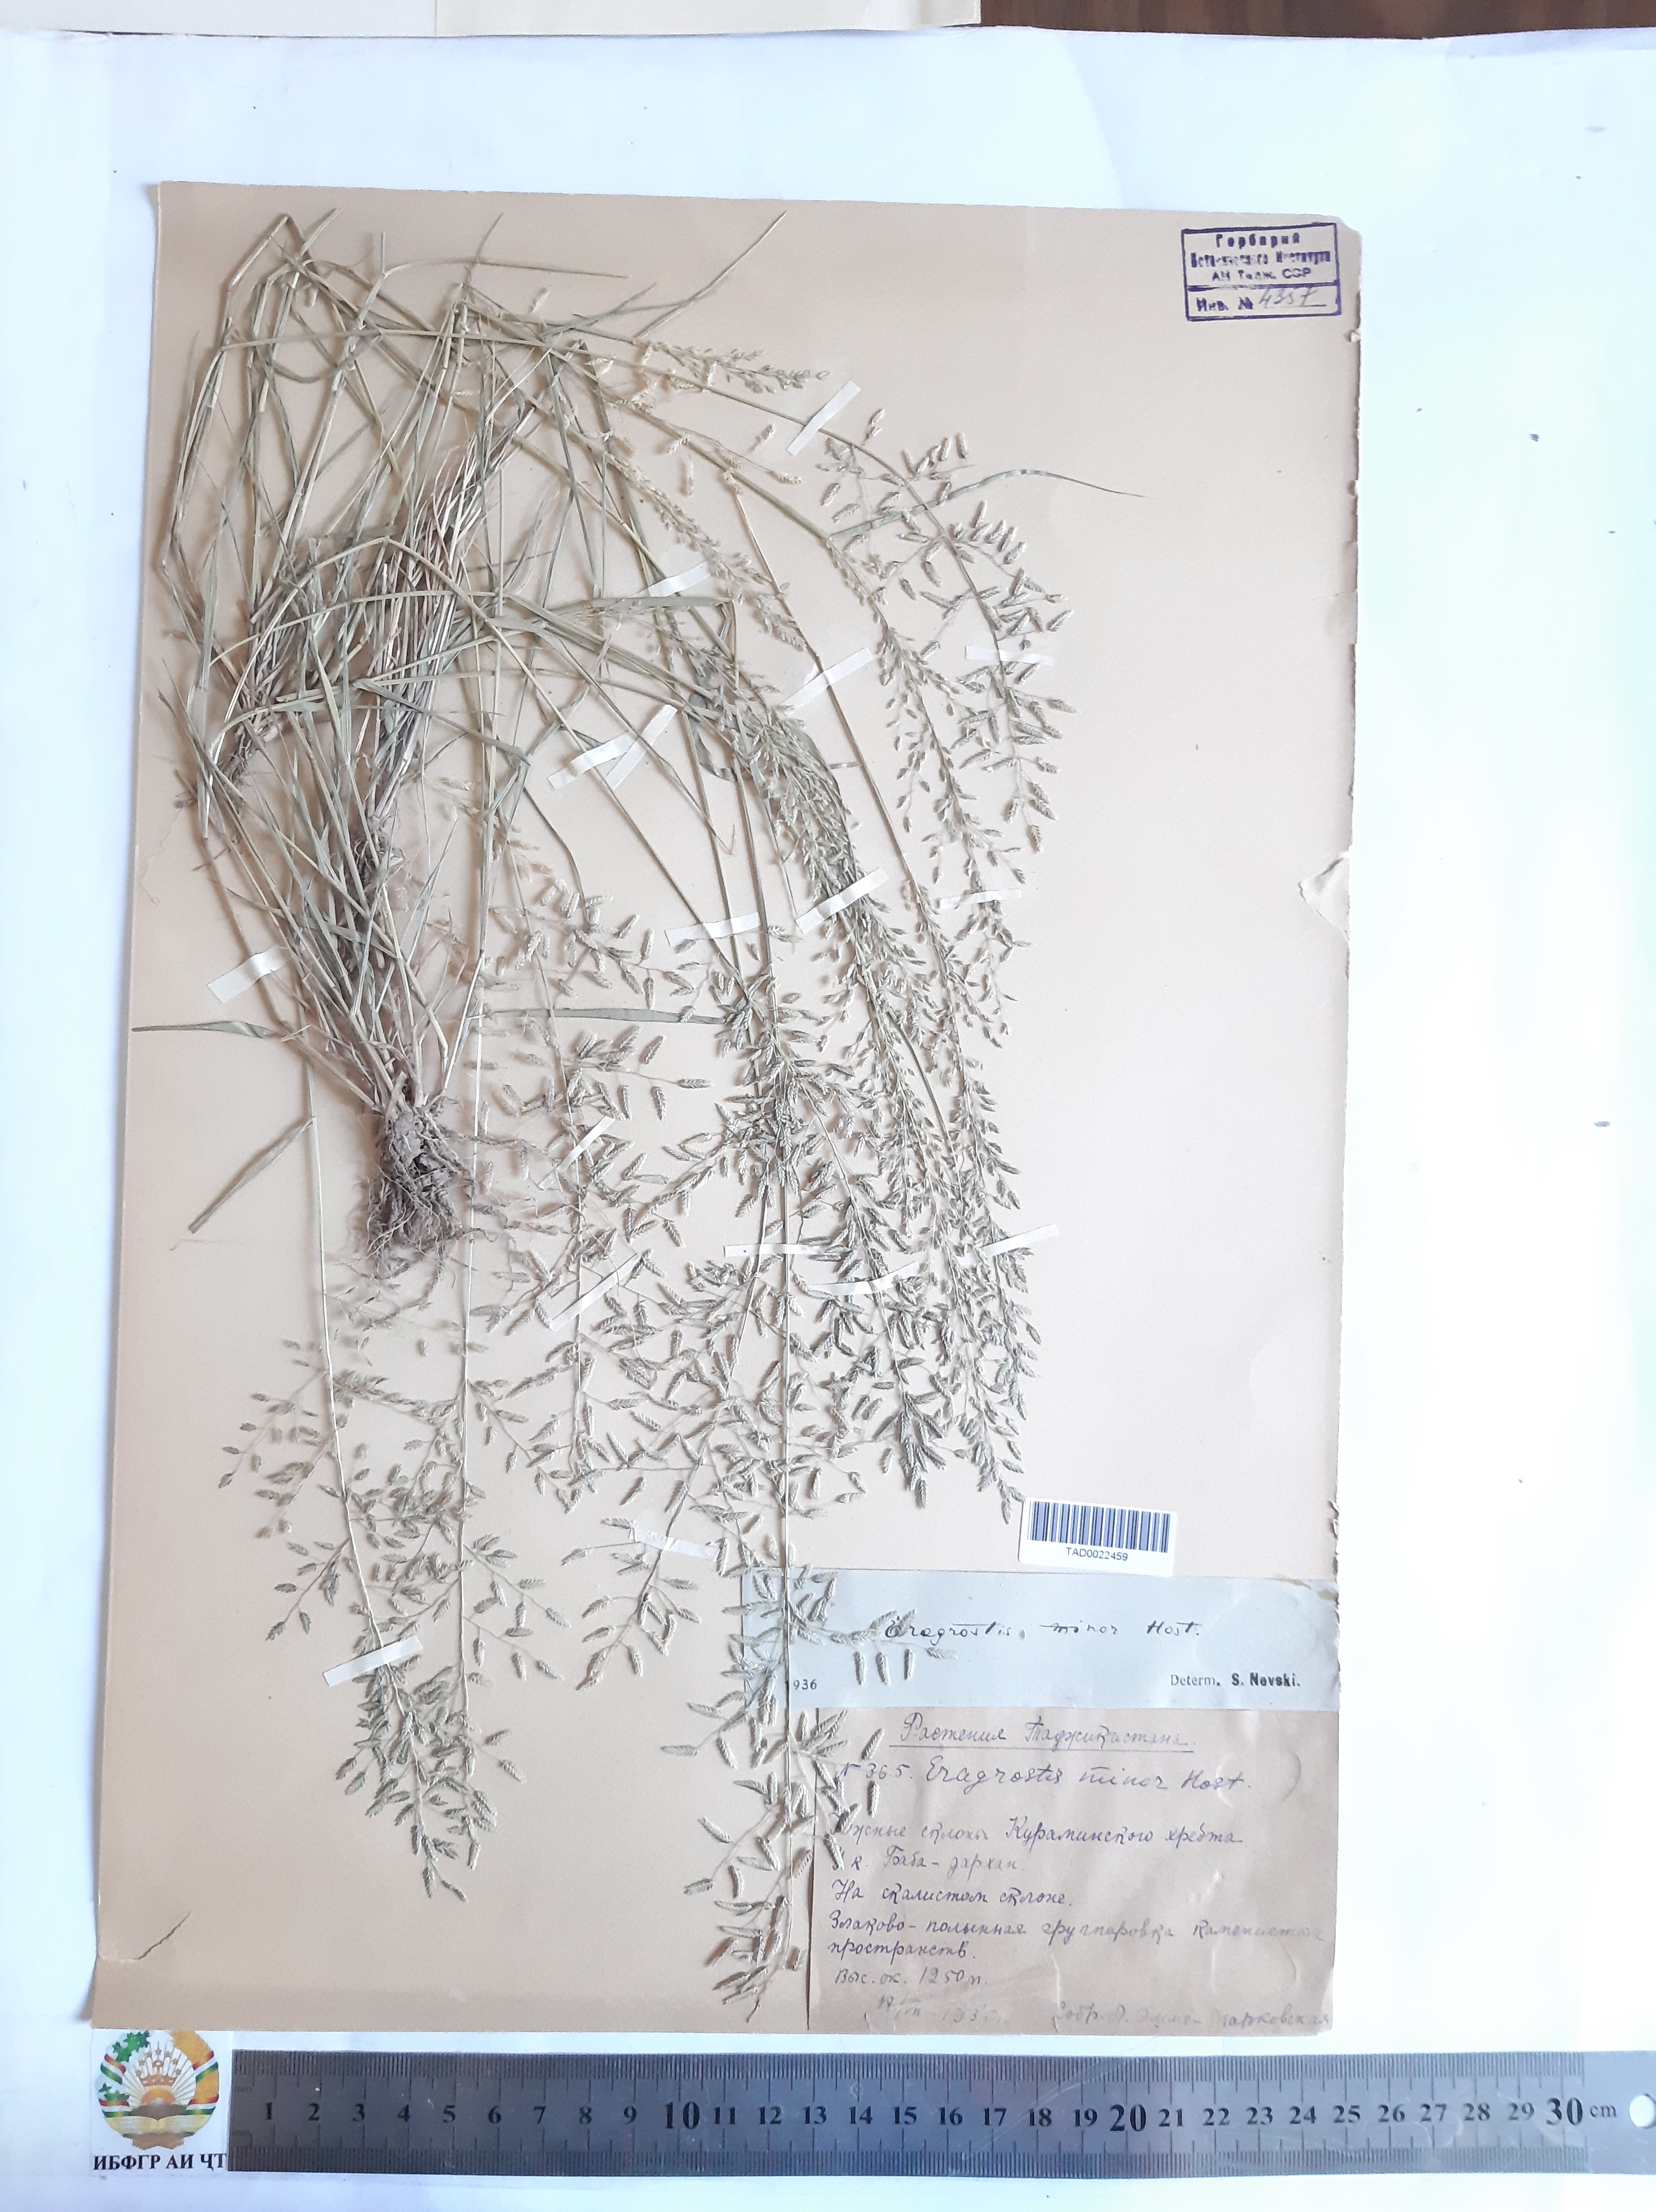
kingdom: Plantae
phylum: Tracheophyta
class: Liliopsida
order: Poales
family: Poaceae
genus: Eragrostis
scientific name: Eragrostis minor
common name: Small love-grass
